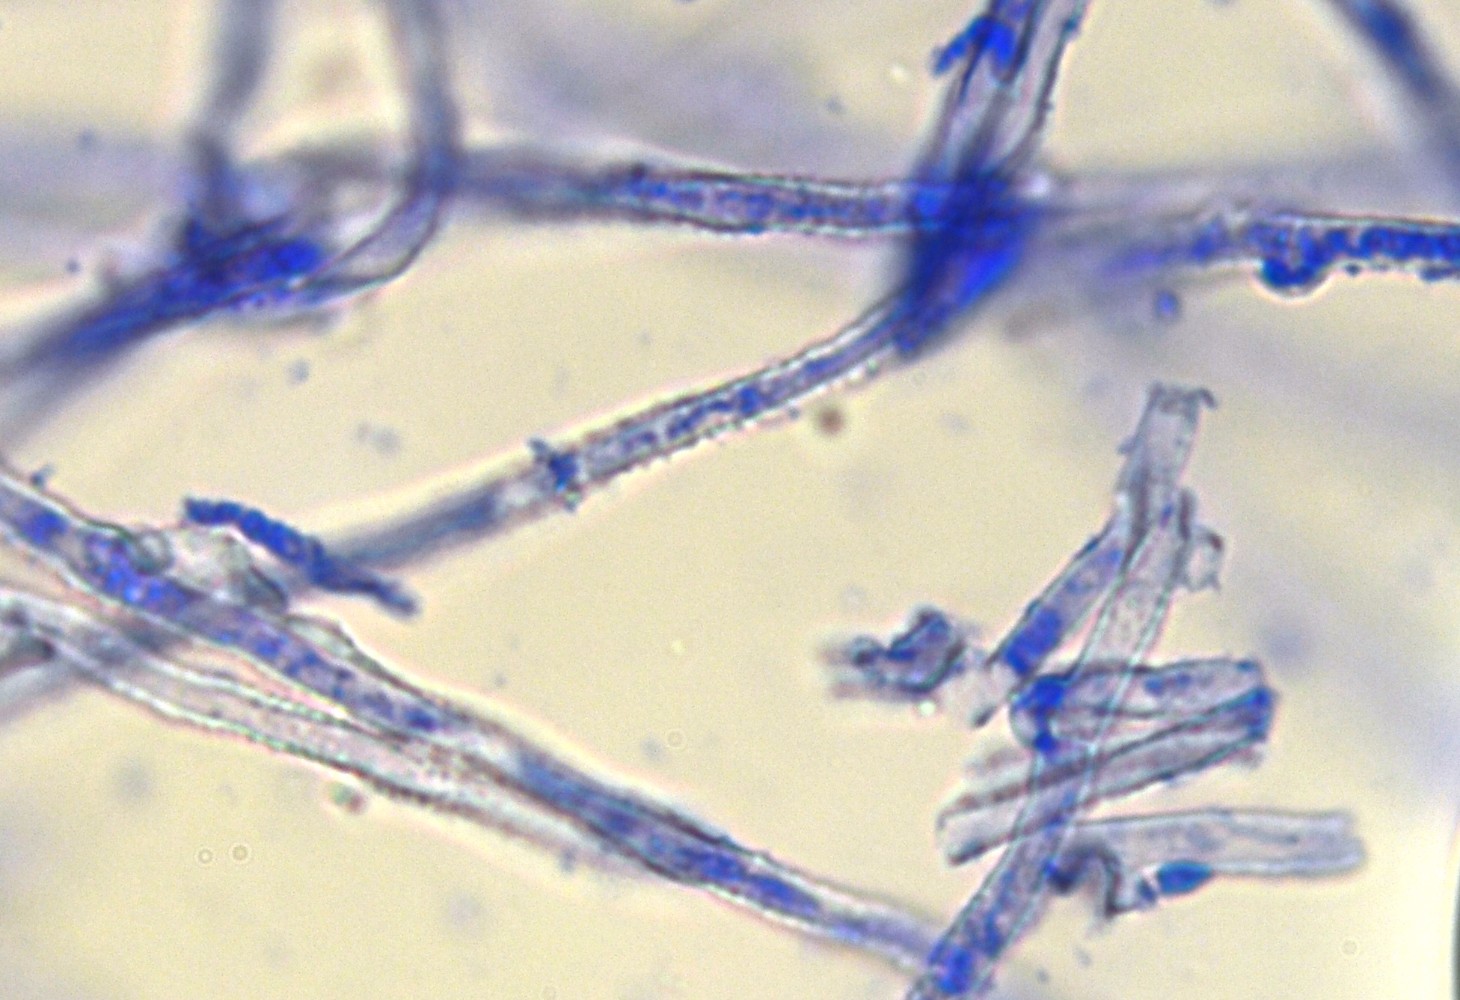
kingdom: Fungi
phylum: Basidiomycota
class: Agaricomycetes
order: Gomphales
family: Lentariaceae
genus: Hydnocristella
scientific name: Hydnocristella himantia
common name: brunlig koralpig
